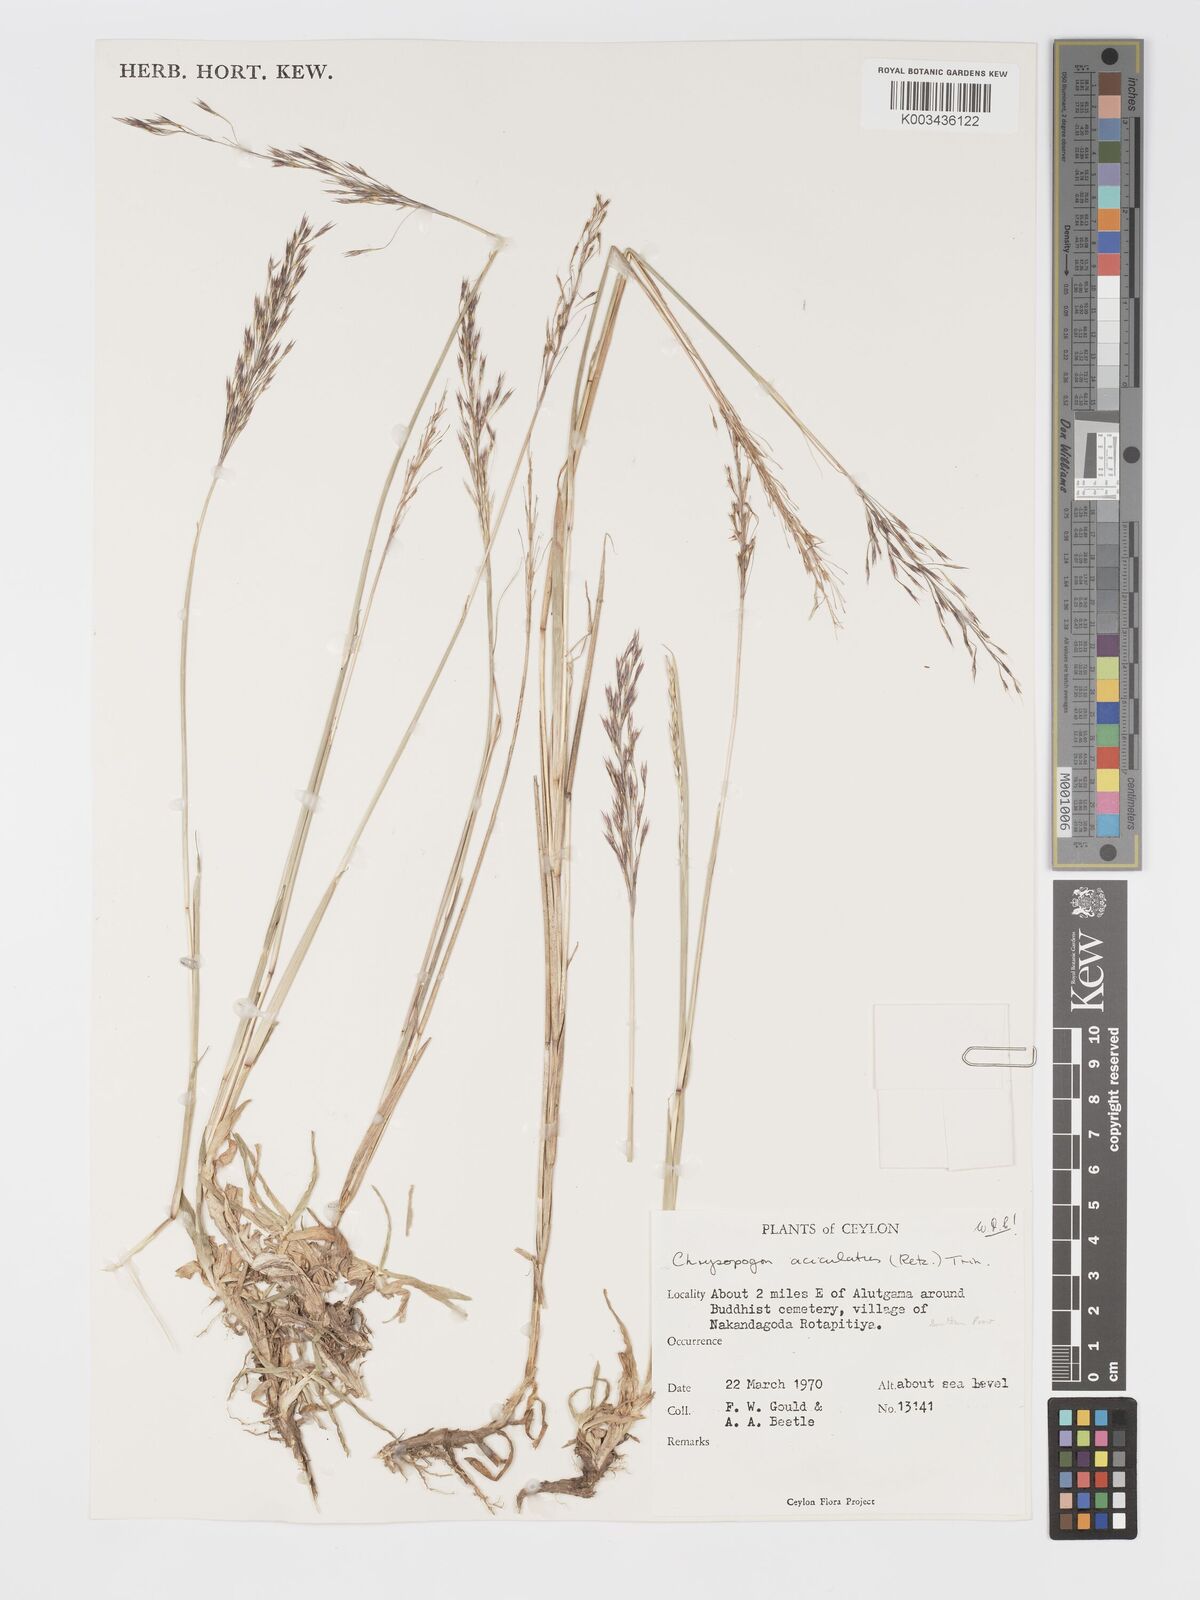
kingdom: Plantae
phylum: Tracheophyta
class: Liliopsida
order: Poales
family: Poaceae
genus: Chrysopogon
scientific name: Chrysopogon aciculatus
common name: Pilipiliula
